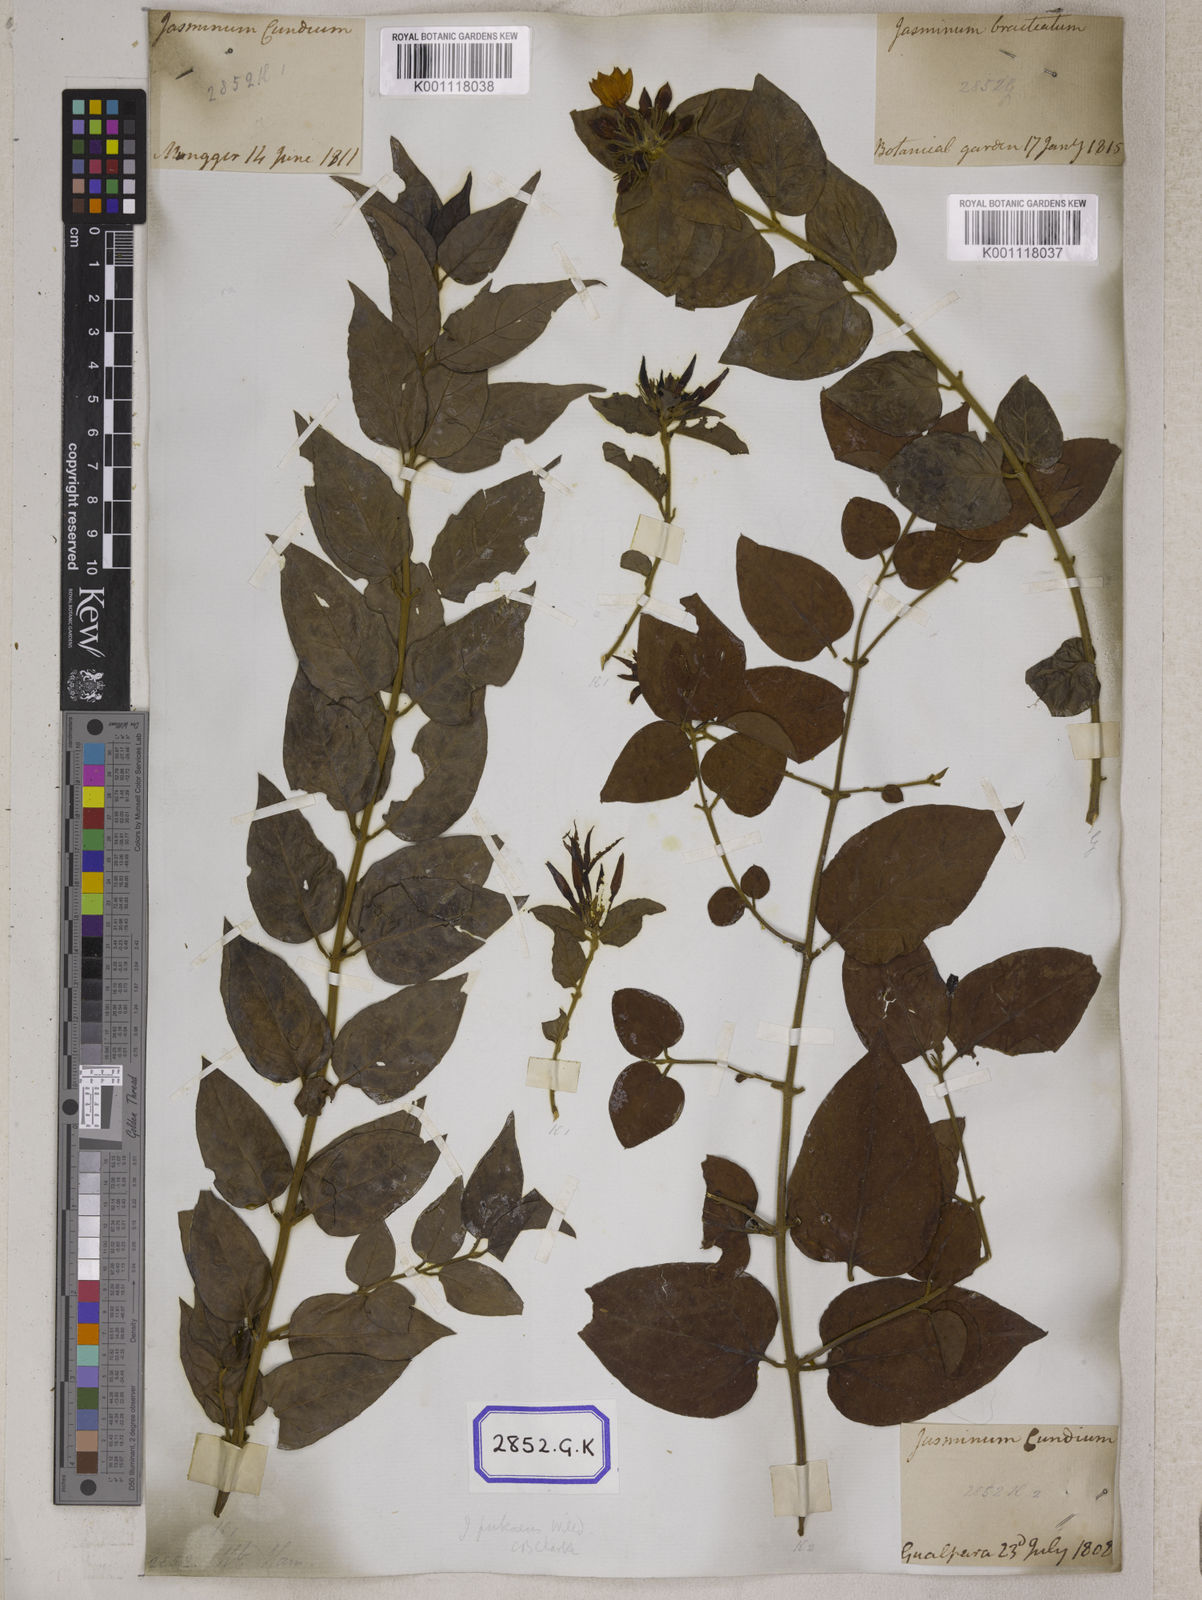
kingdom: Plantae
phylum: Tracheophyta
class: Magnoliopsida
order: Gentianales
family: Rubiaceae
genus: Guettarda
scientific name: Guettarda speciosa
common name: Sea randa
